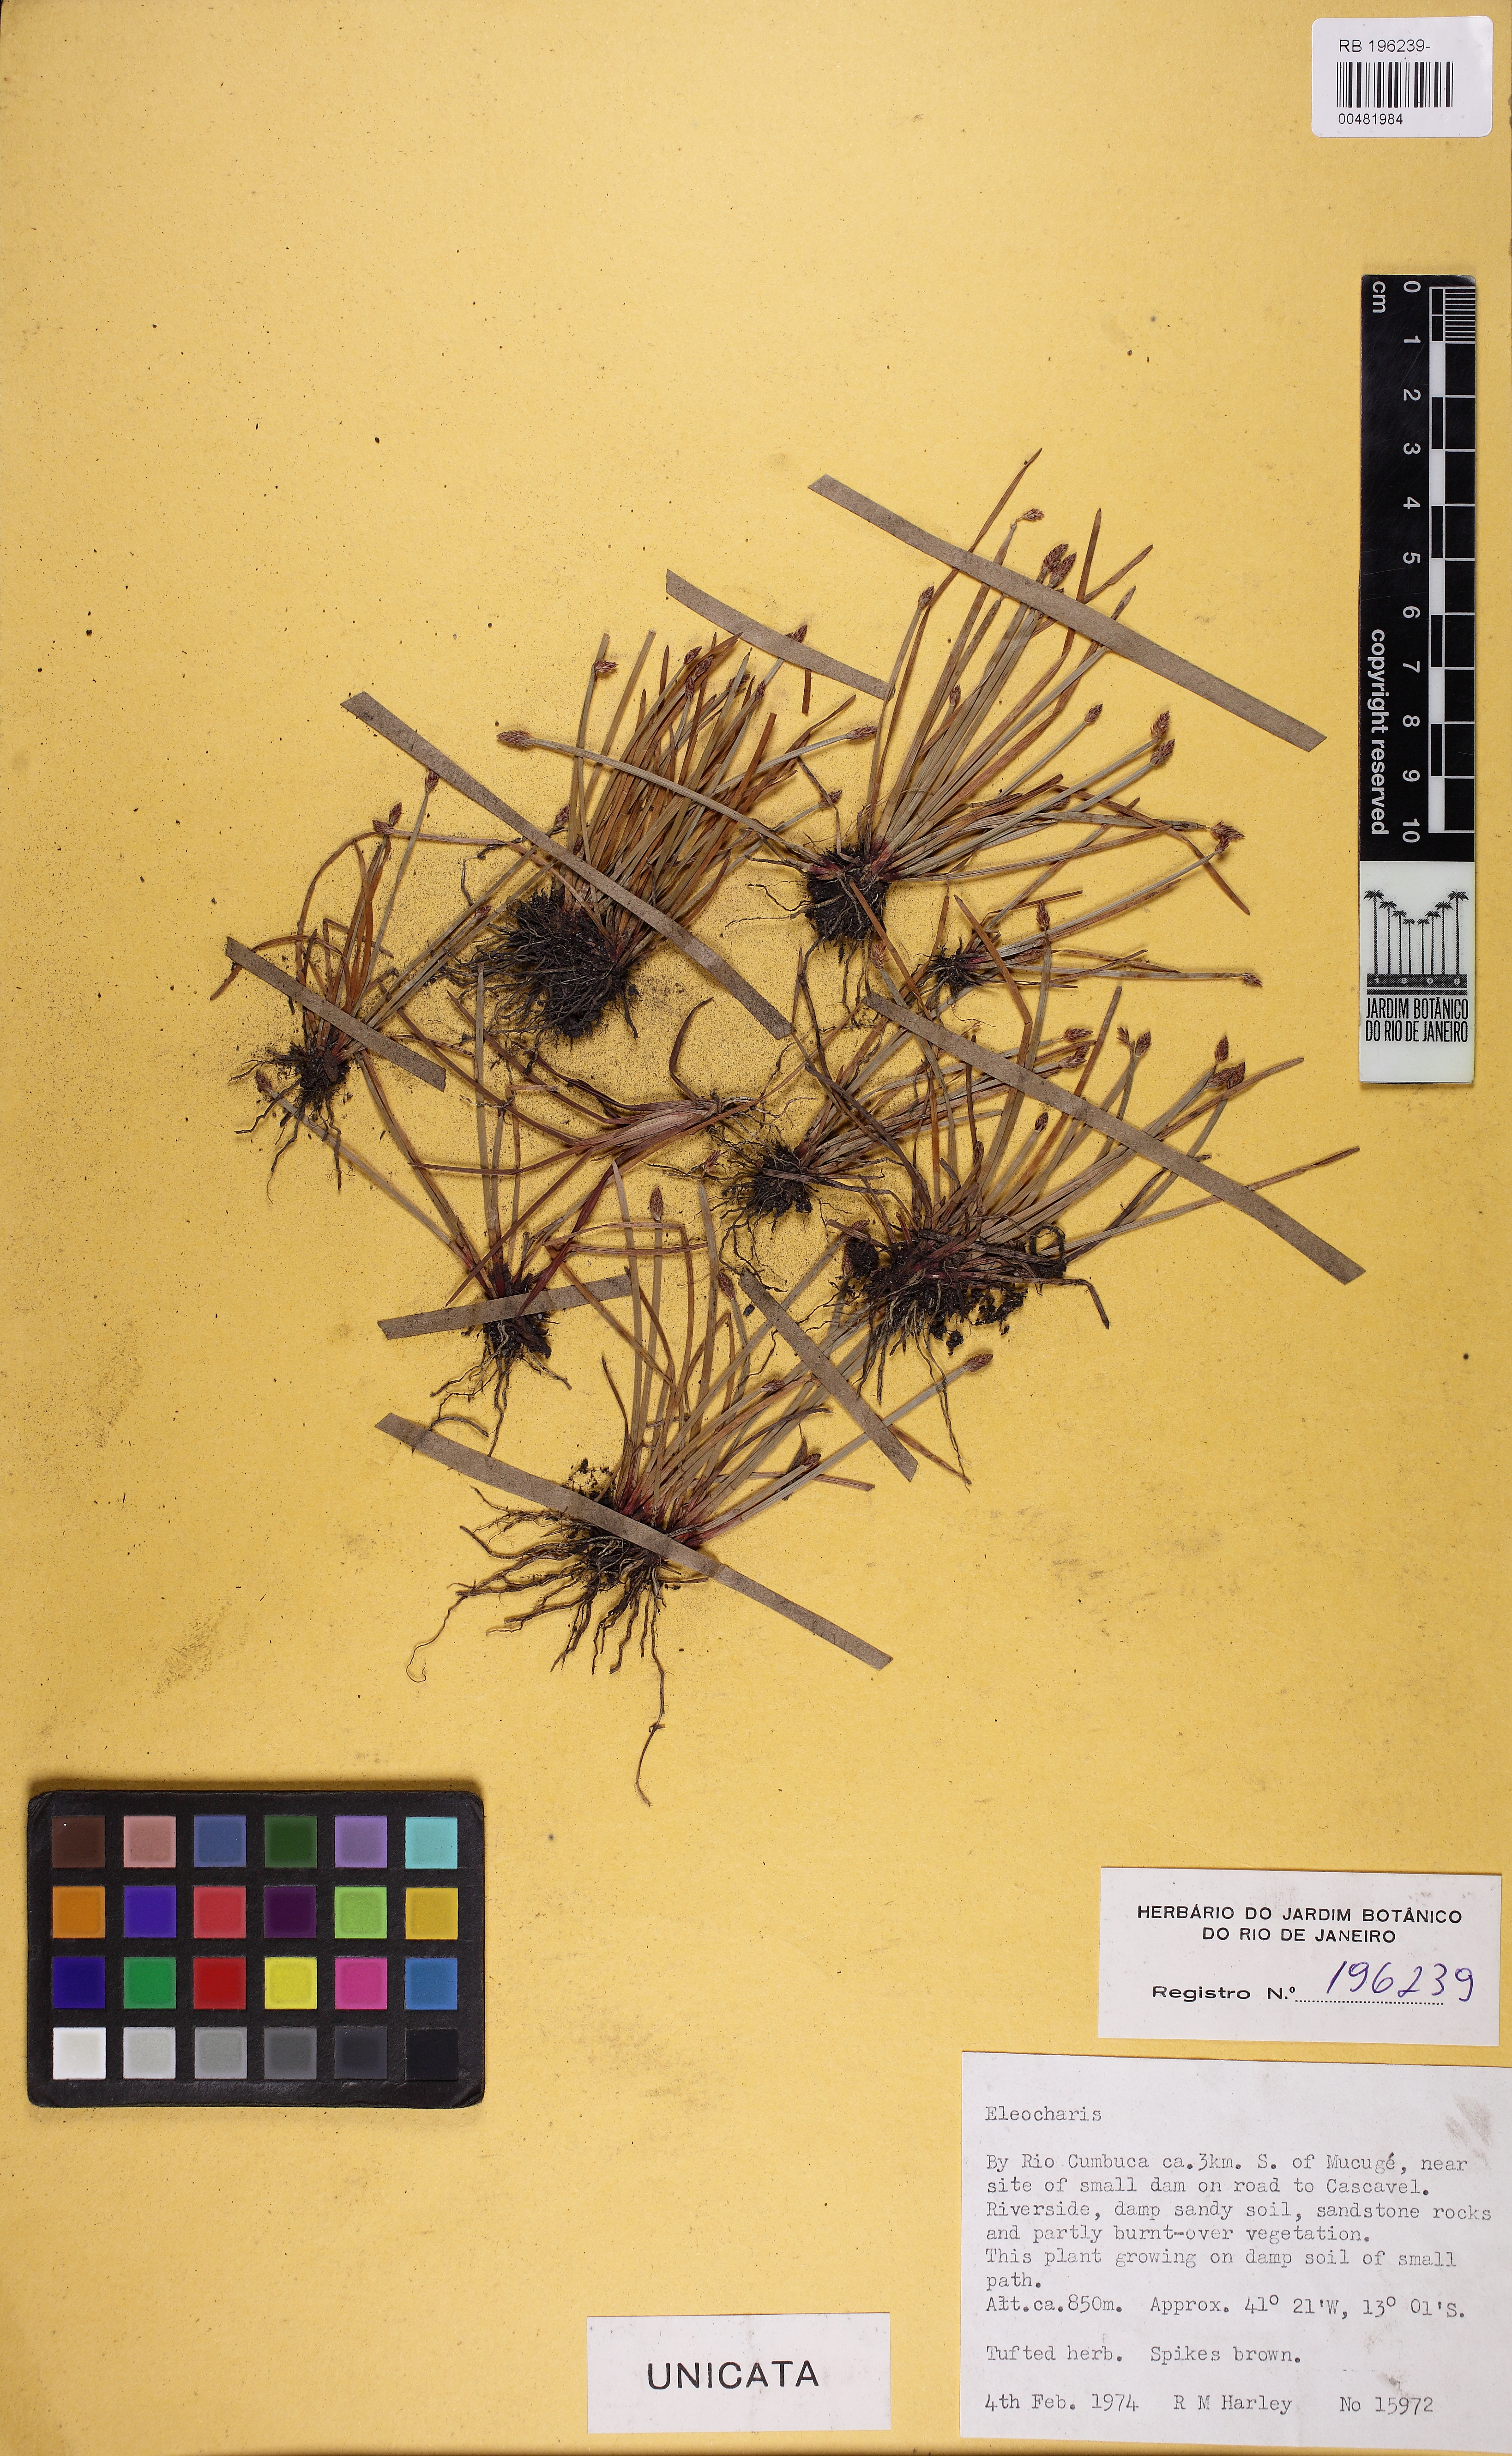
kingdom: Plantae
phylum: Tracheophyta
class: Liliopsida
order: Poales
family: Cyperaceae
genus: Eleocharis
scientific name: Eleocharis
